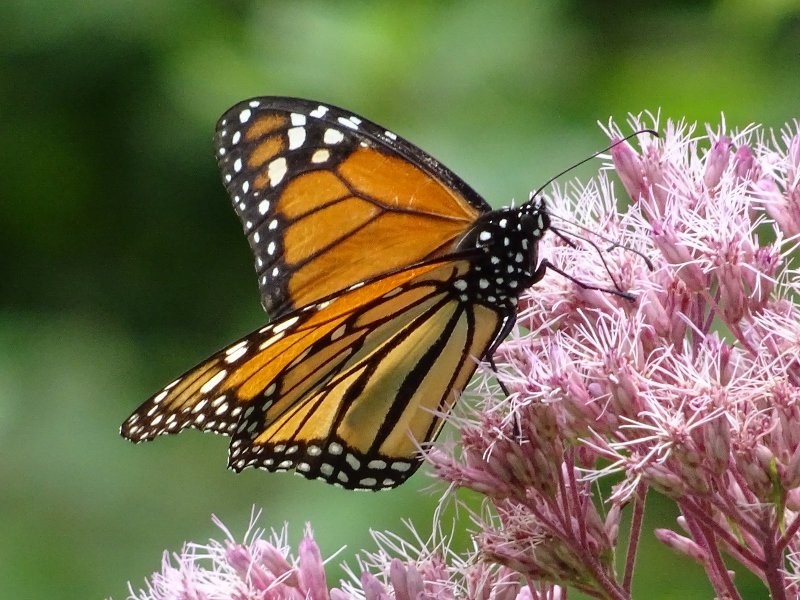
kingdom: Animalia
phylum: Arthropoda
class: Insecta
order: Lepidoptera
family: Nymphalidae
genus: Danaus
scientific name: Danaus plexippus
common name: Monarch
